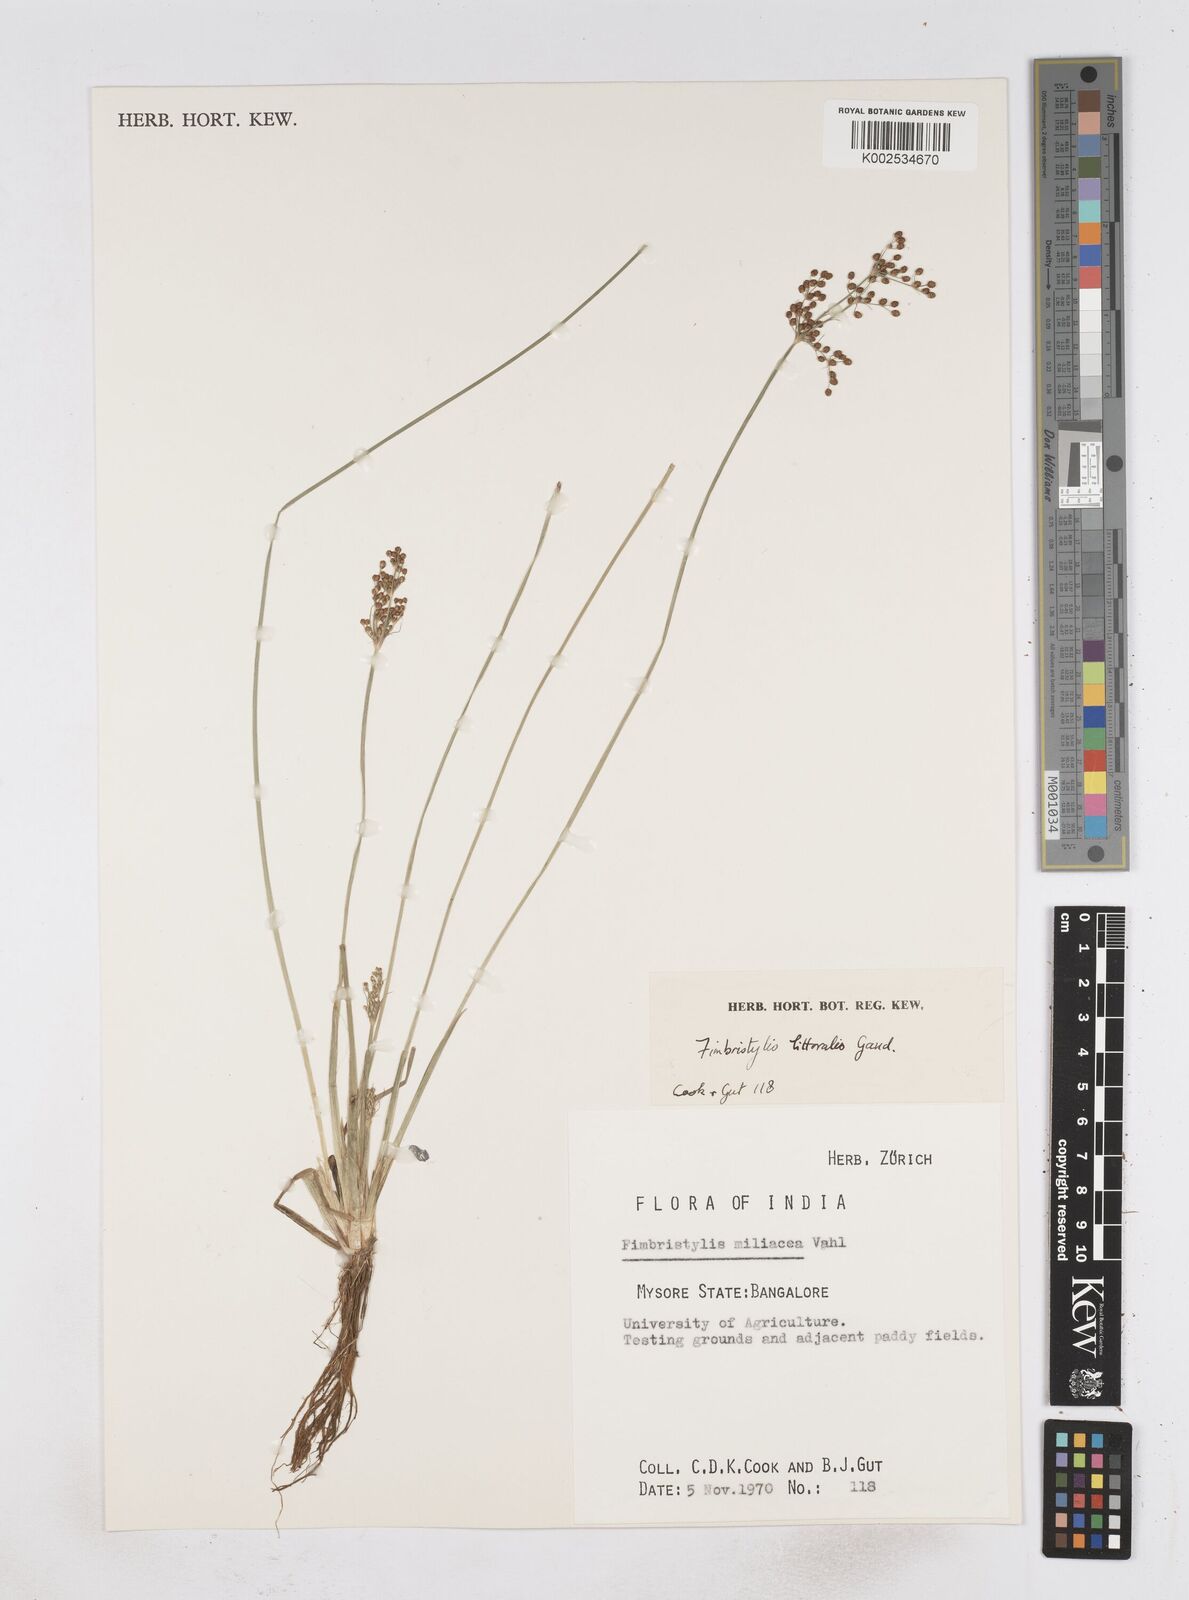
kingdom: Plantae
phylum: Tracheophyta
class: Liliopsida
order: Poales
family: Cyperaceae
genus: Fimbristylis
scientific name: Fimbristylis littoralis
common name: Fimbry
